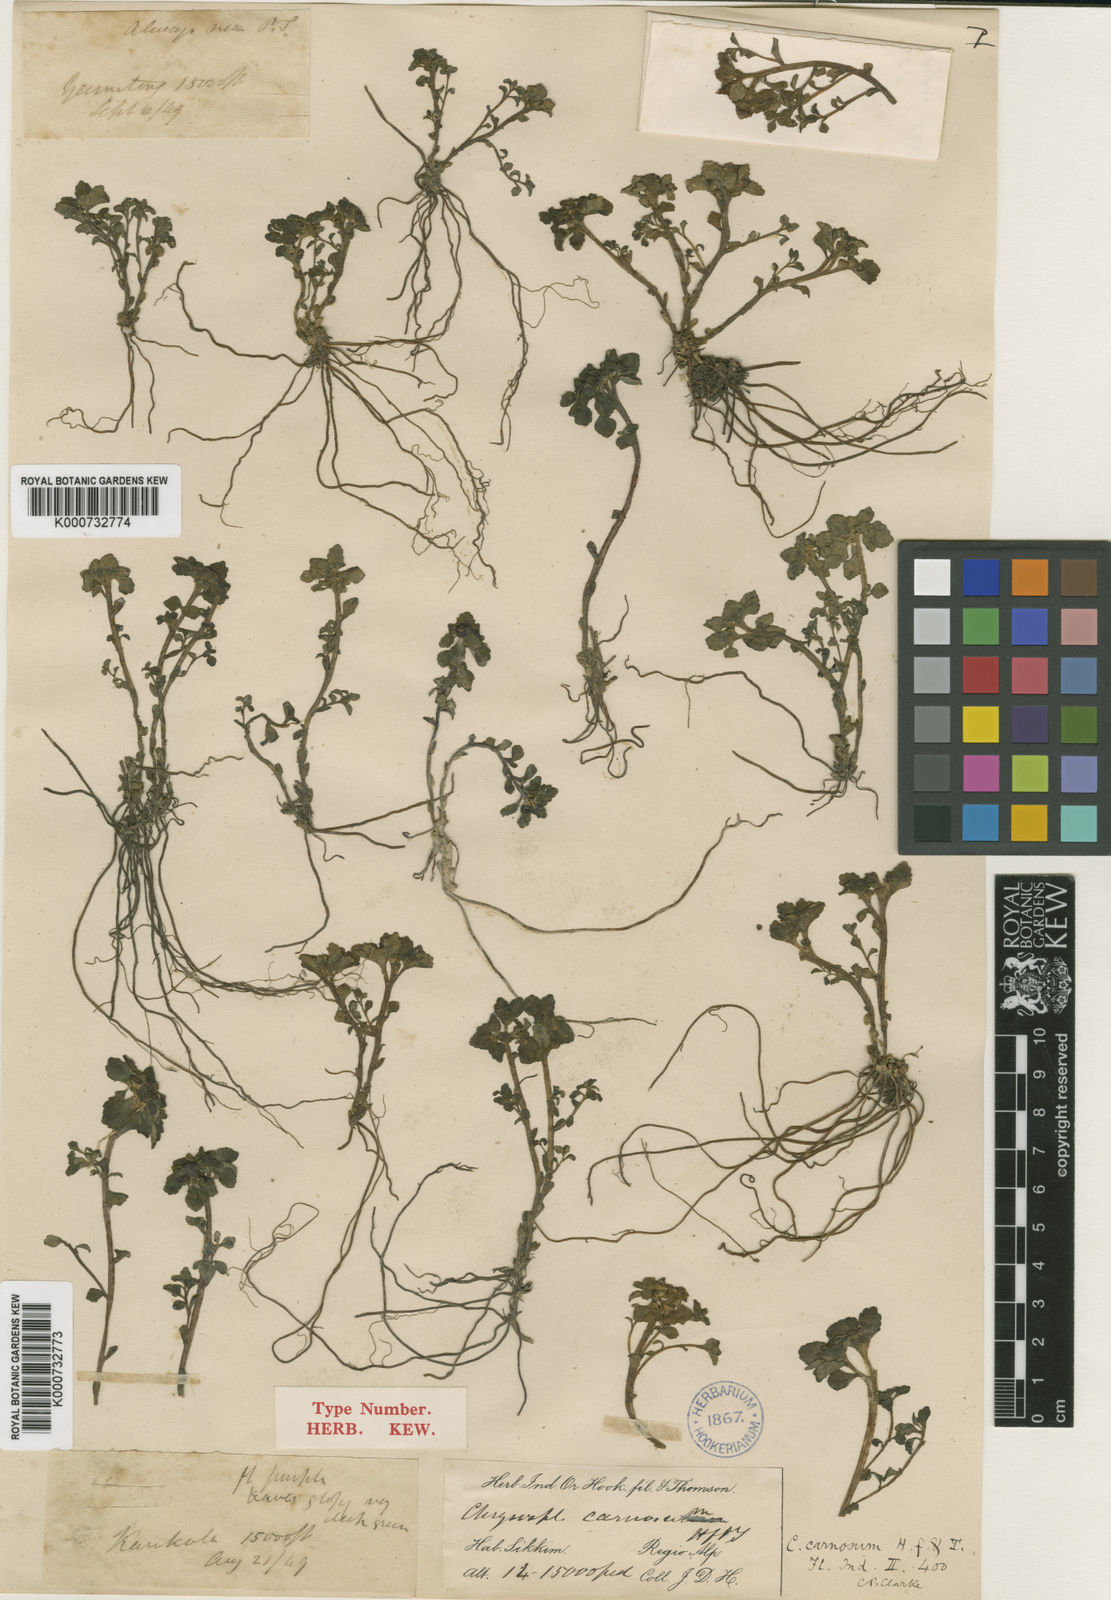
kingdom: Plantae
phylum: Tracheophyta
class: Magnoliopsida
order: Saxifragales
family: Saxifragaceae
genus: Chrysosplenium
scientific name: Chrysosplenium carnosum
